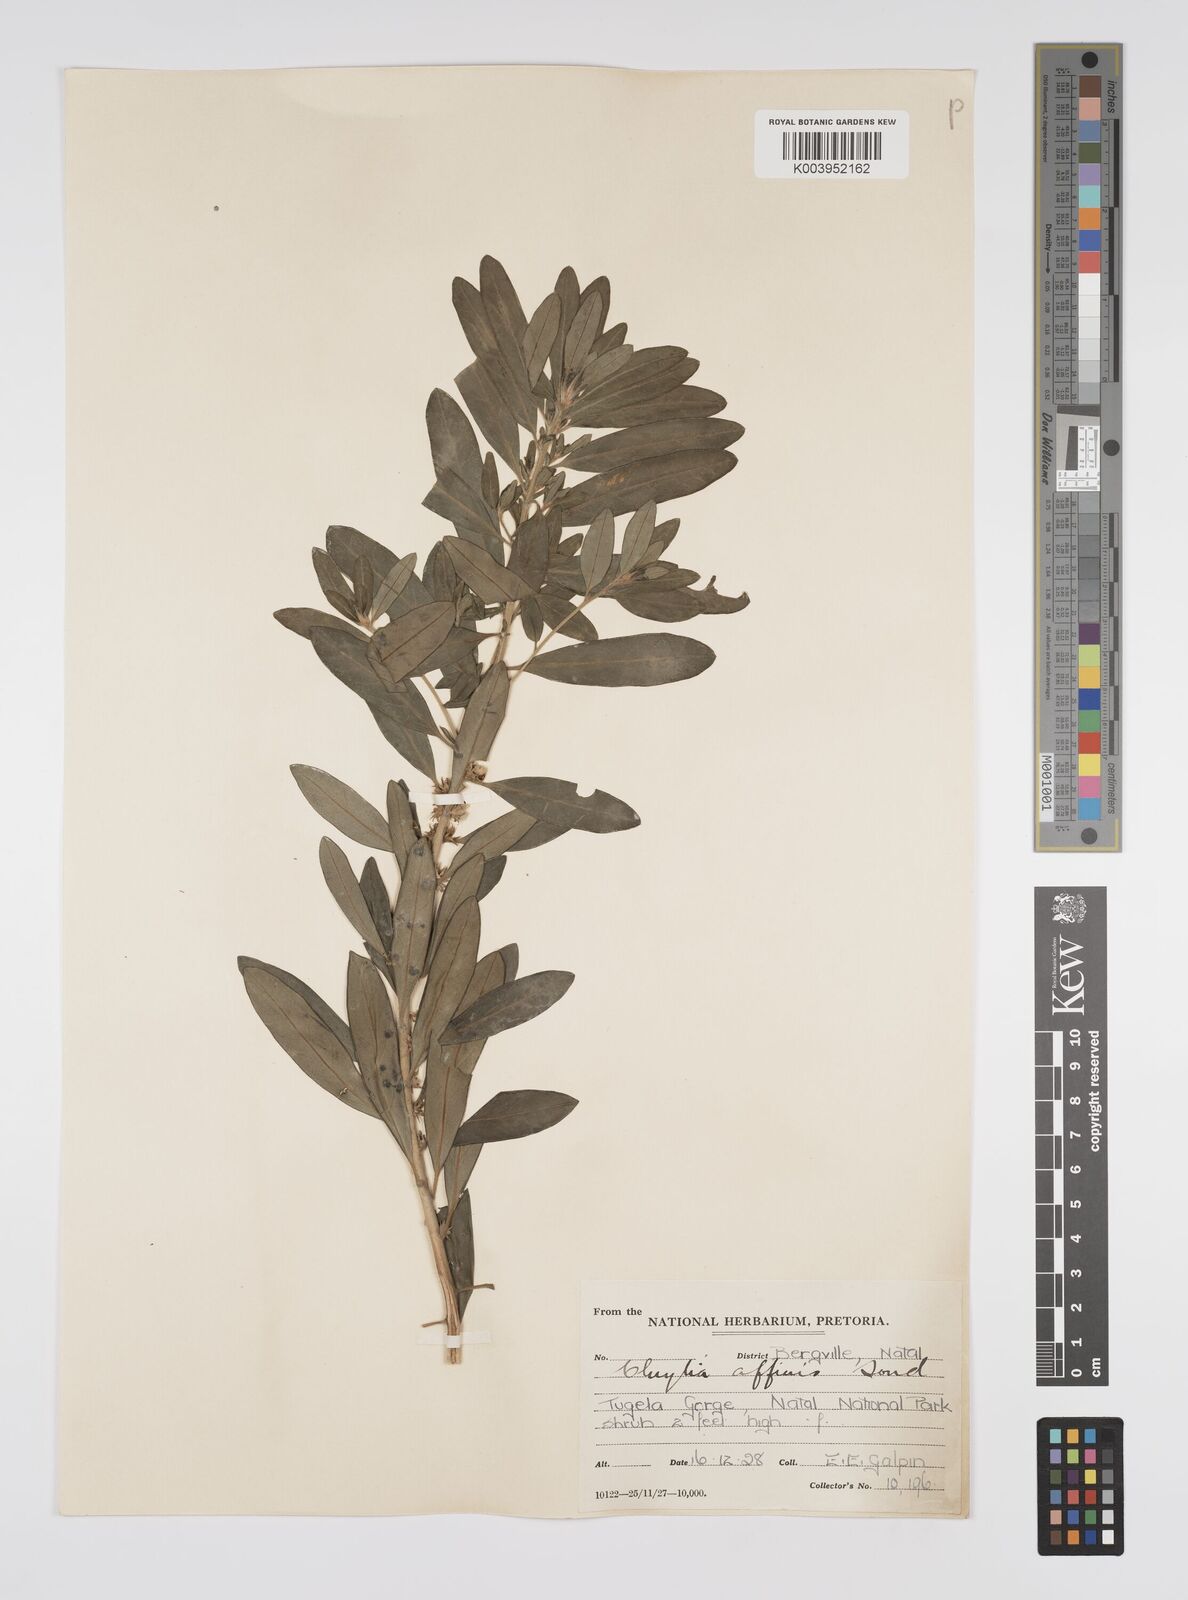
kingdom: Plantae
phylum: Tracheophyta
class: Magnoliopsida
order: Malpighiales
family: Peraceae
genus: Clutia
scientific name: Clutia affinis
